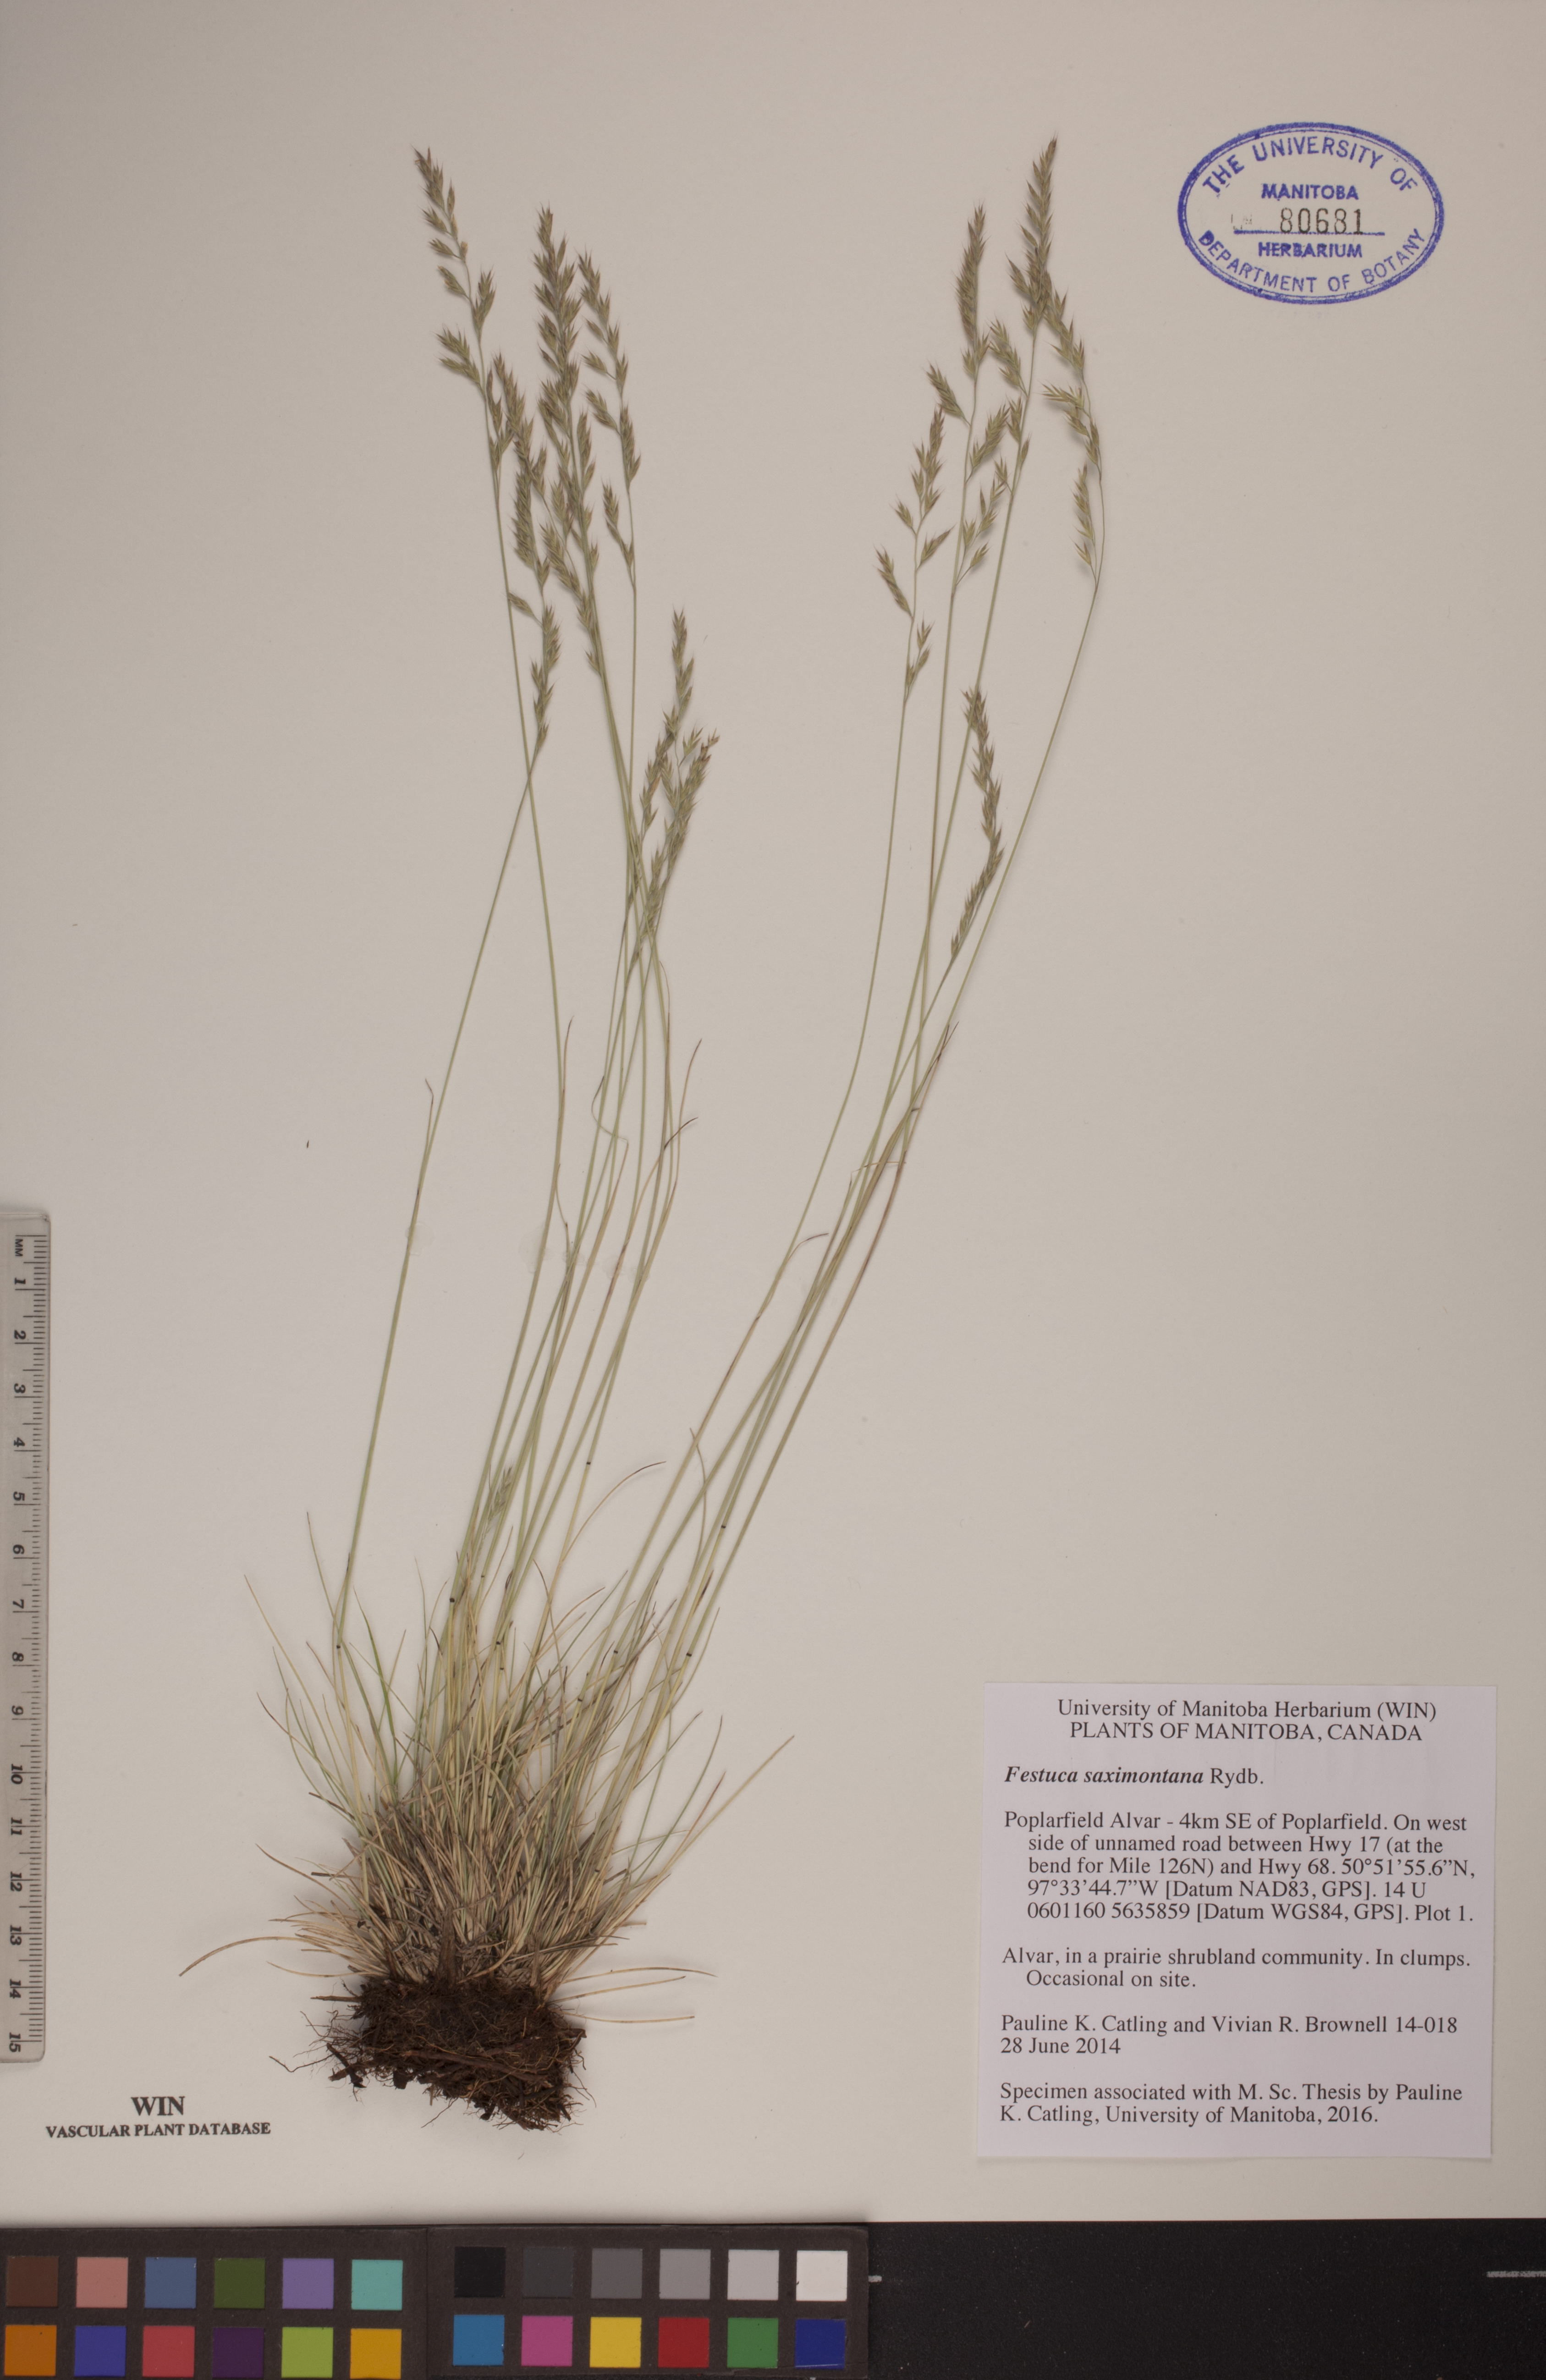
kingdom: Plantae
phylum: Tracheophyta
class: Liliopsida
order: Poales
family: Poaceae
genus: Festuca
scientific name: Festuca saximontana
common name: Mountain fescue
